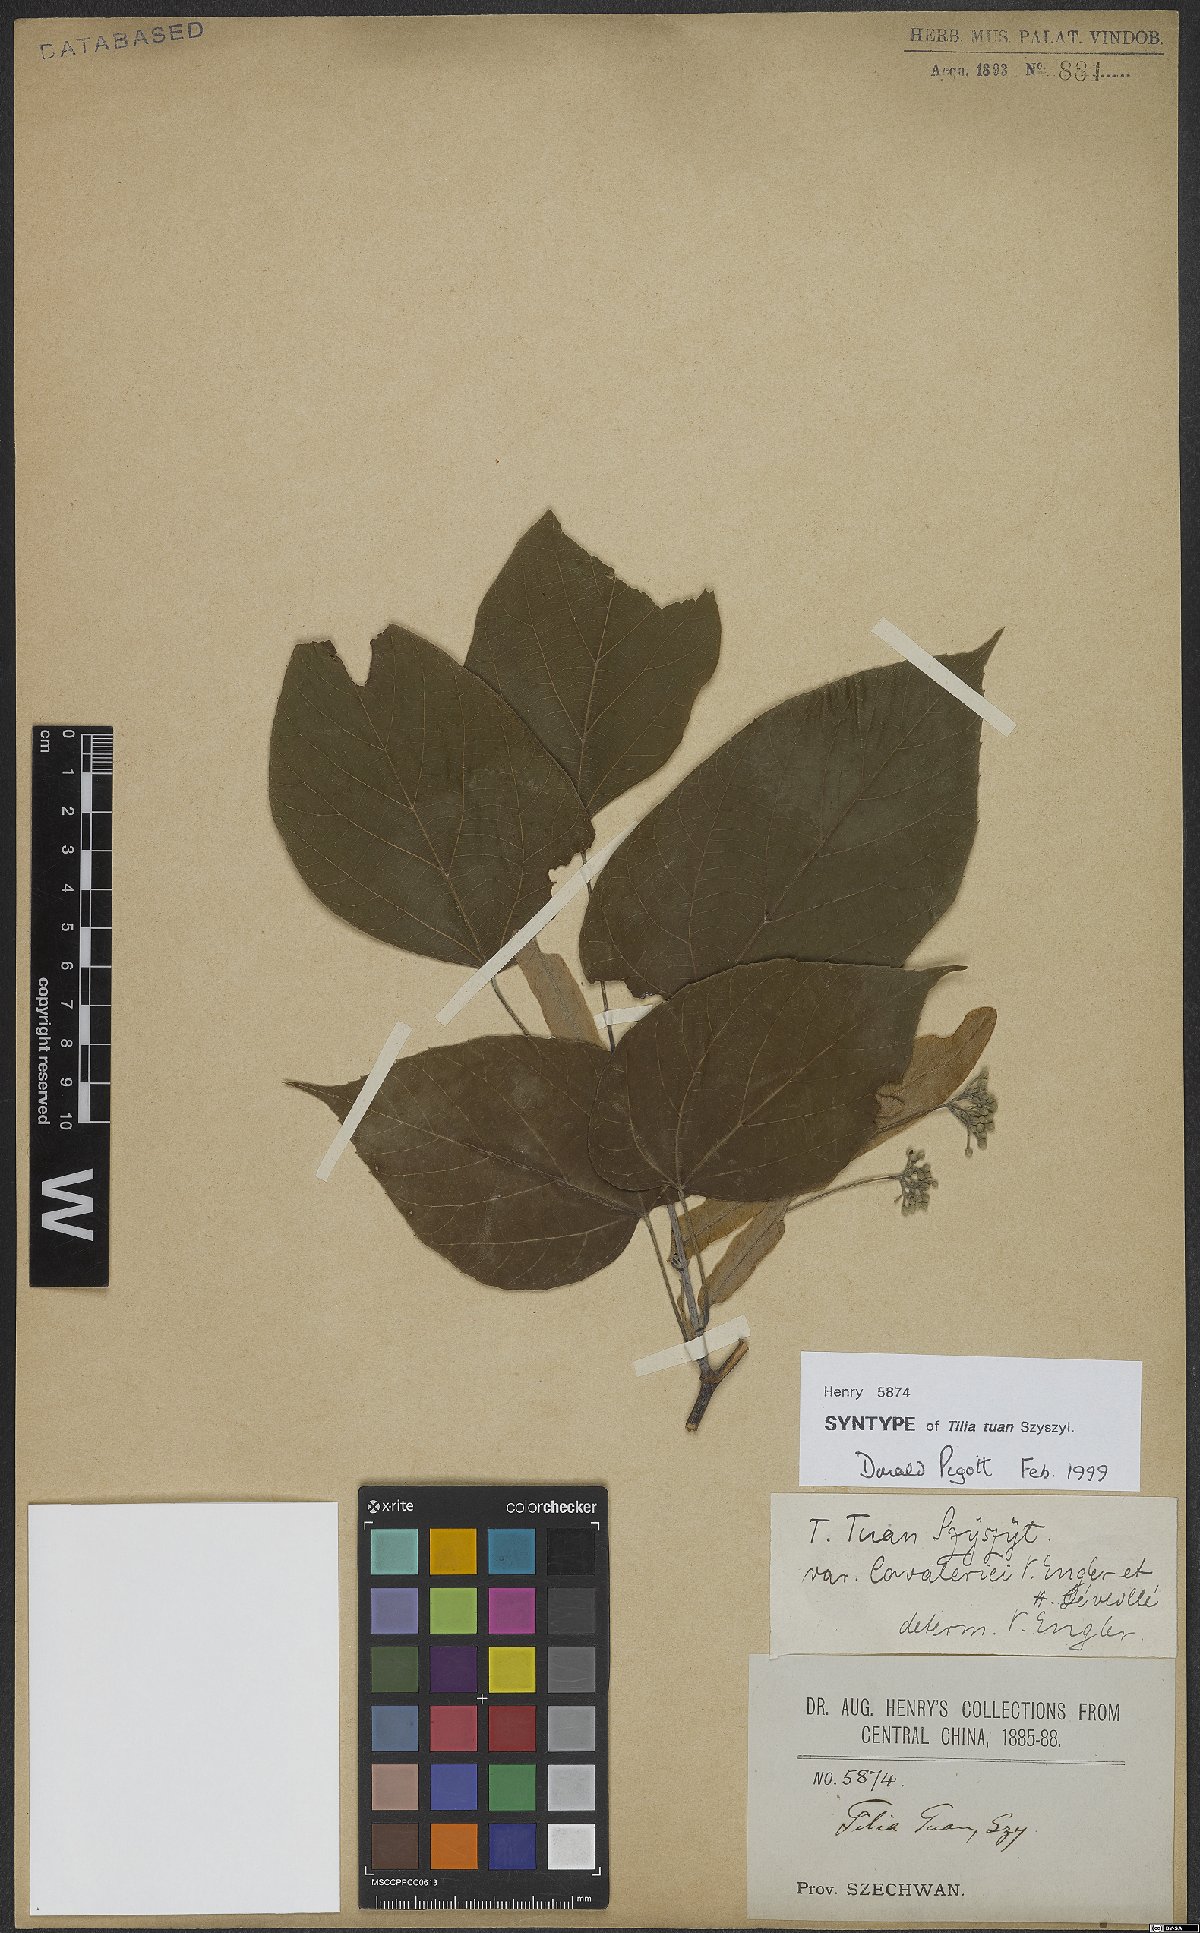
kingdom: Plantae
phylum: Tracheophyta
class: Magnoliopsida
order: Malvales
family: Malvaceae
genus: Tilia
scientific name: Tilia tuan
